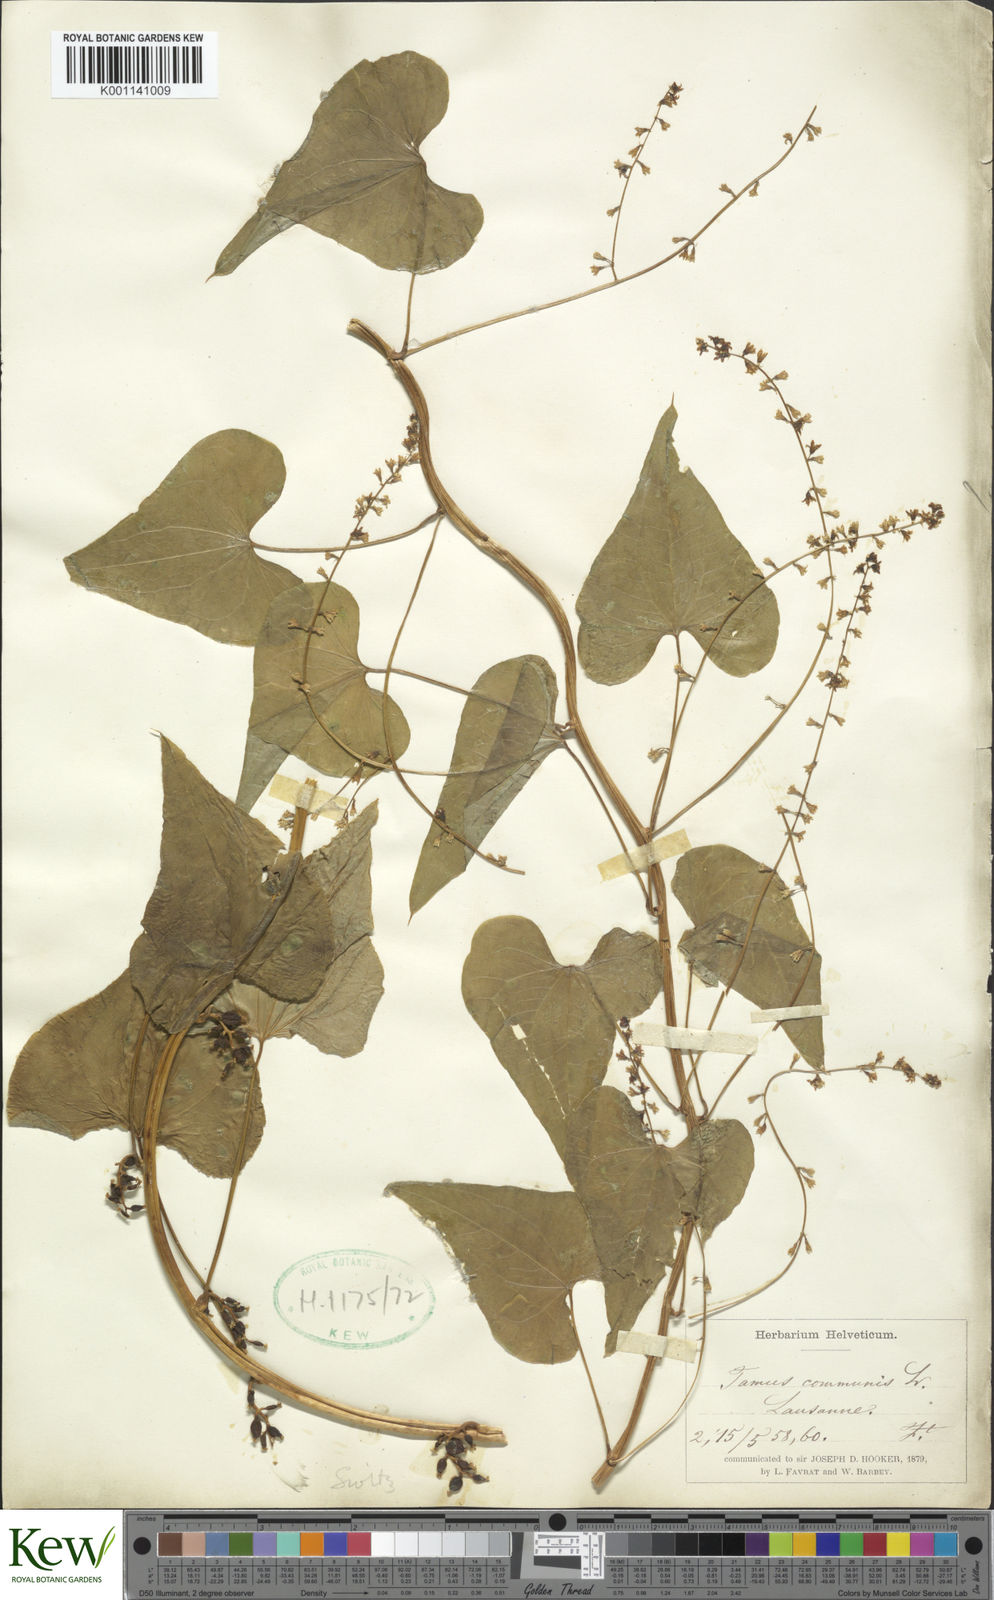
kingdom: Plantae
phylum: Tracheophyta
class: Liliopsida
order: Dioscoreales
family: Dioscoreaceae
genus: Dioscorea
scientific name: Dioscorea communis
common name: Black-bindweed
